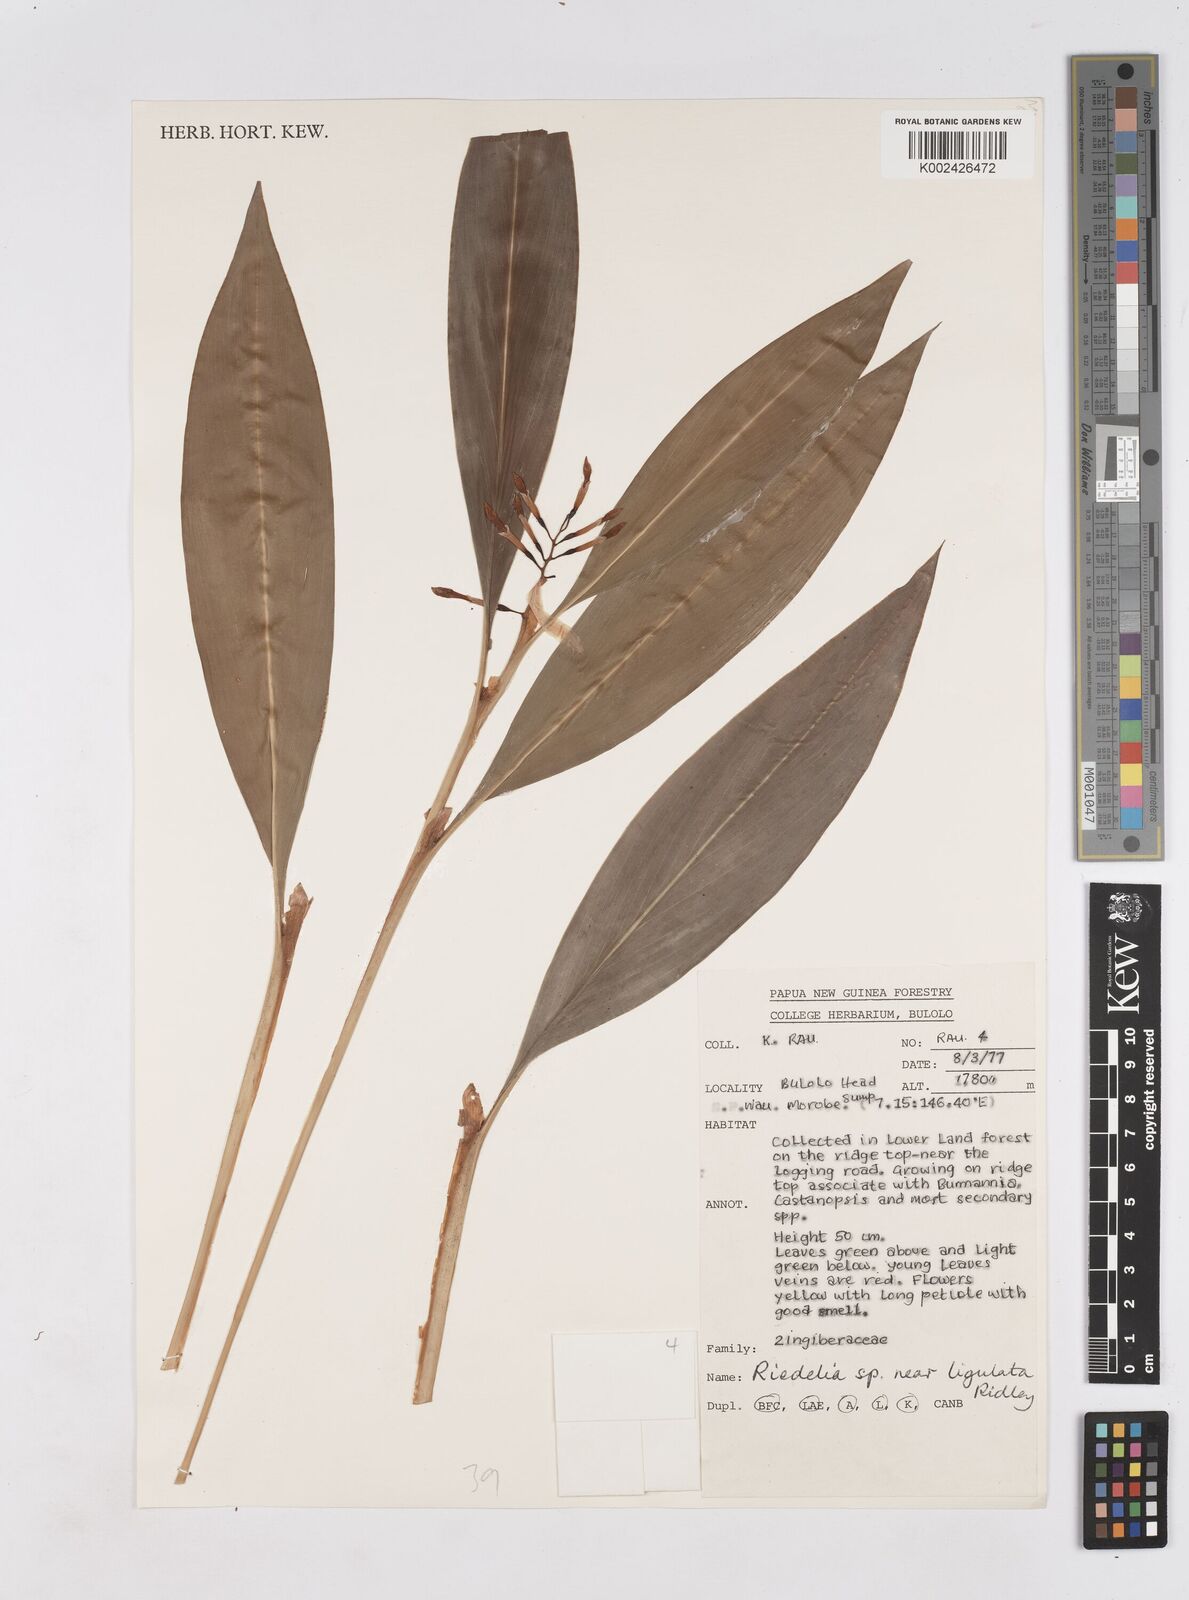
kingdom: Plantae
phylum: Tracheophyta
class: Liliopsida
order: Zingiberales
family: Zingiberaceae
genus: Riedelia
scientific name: Riedelia ligulata
